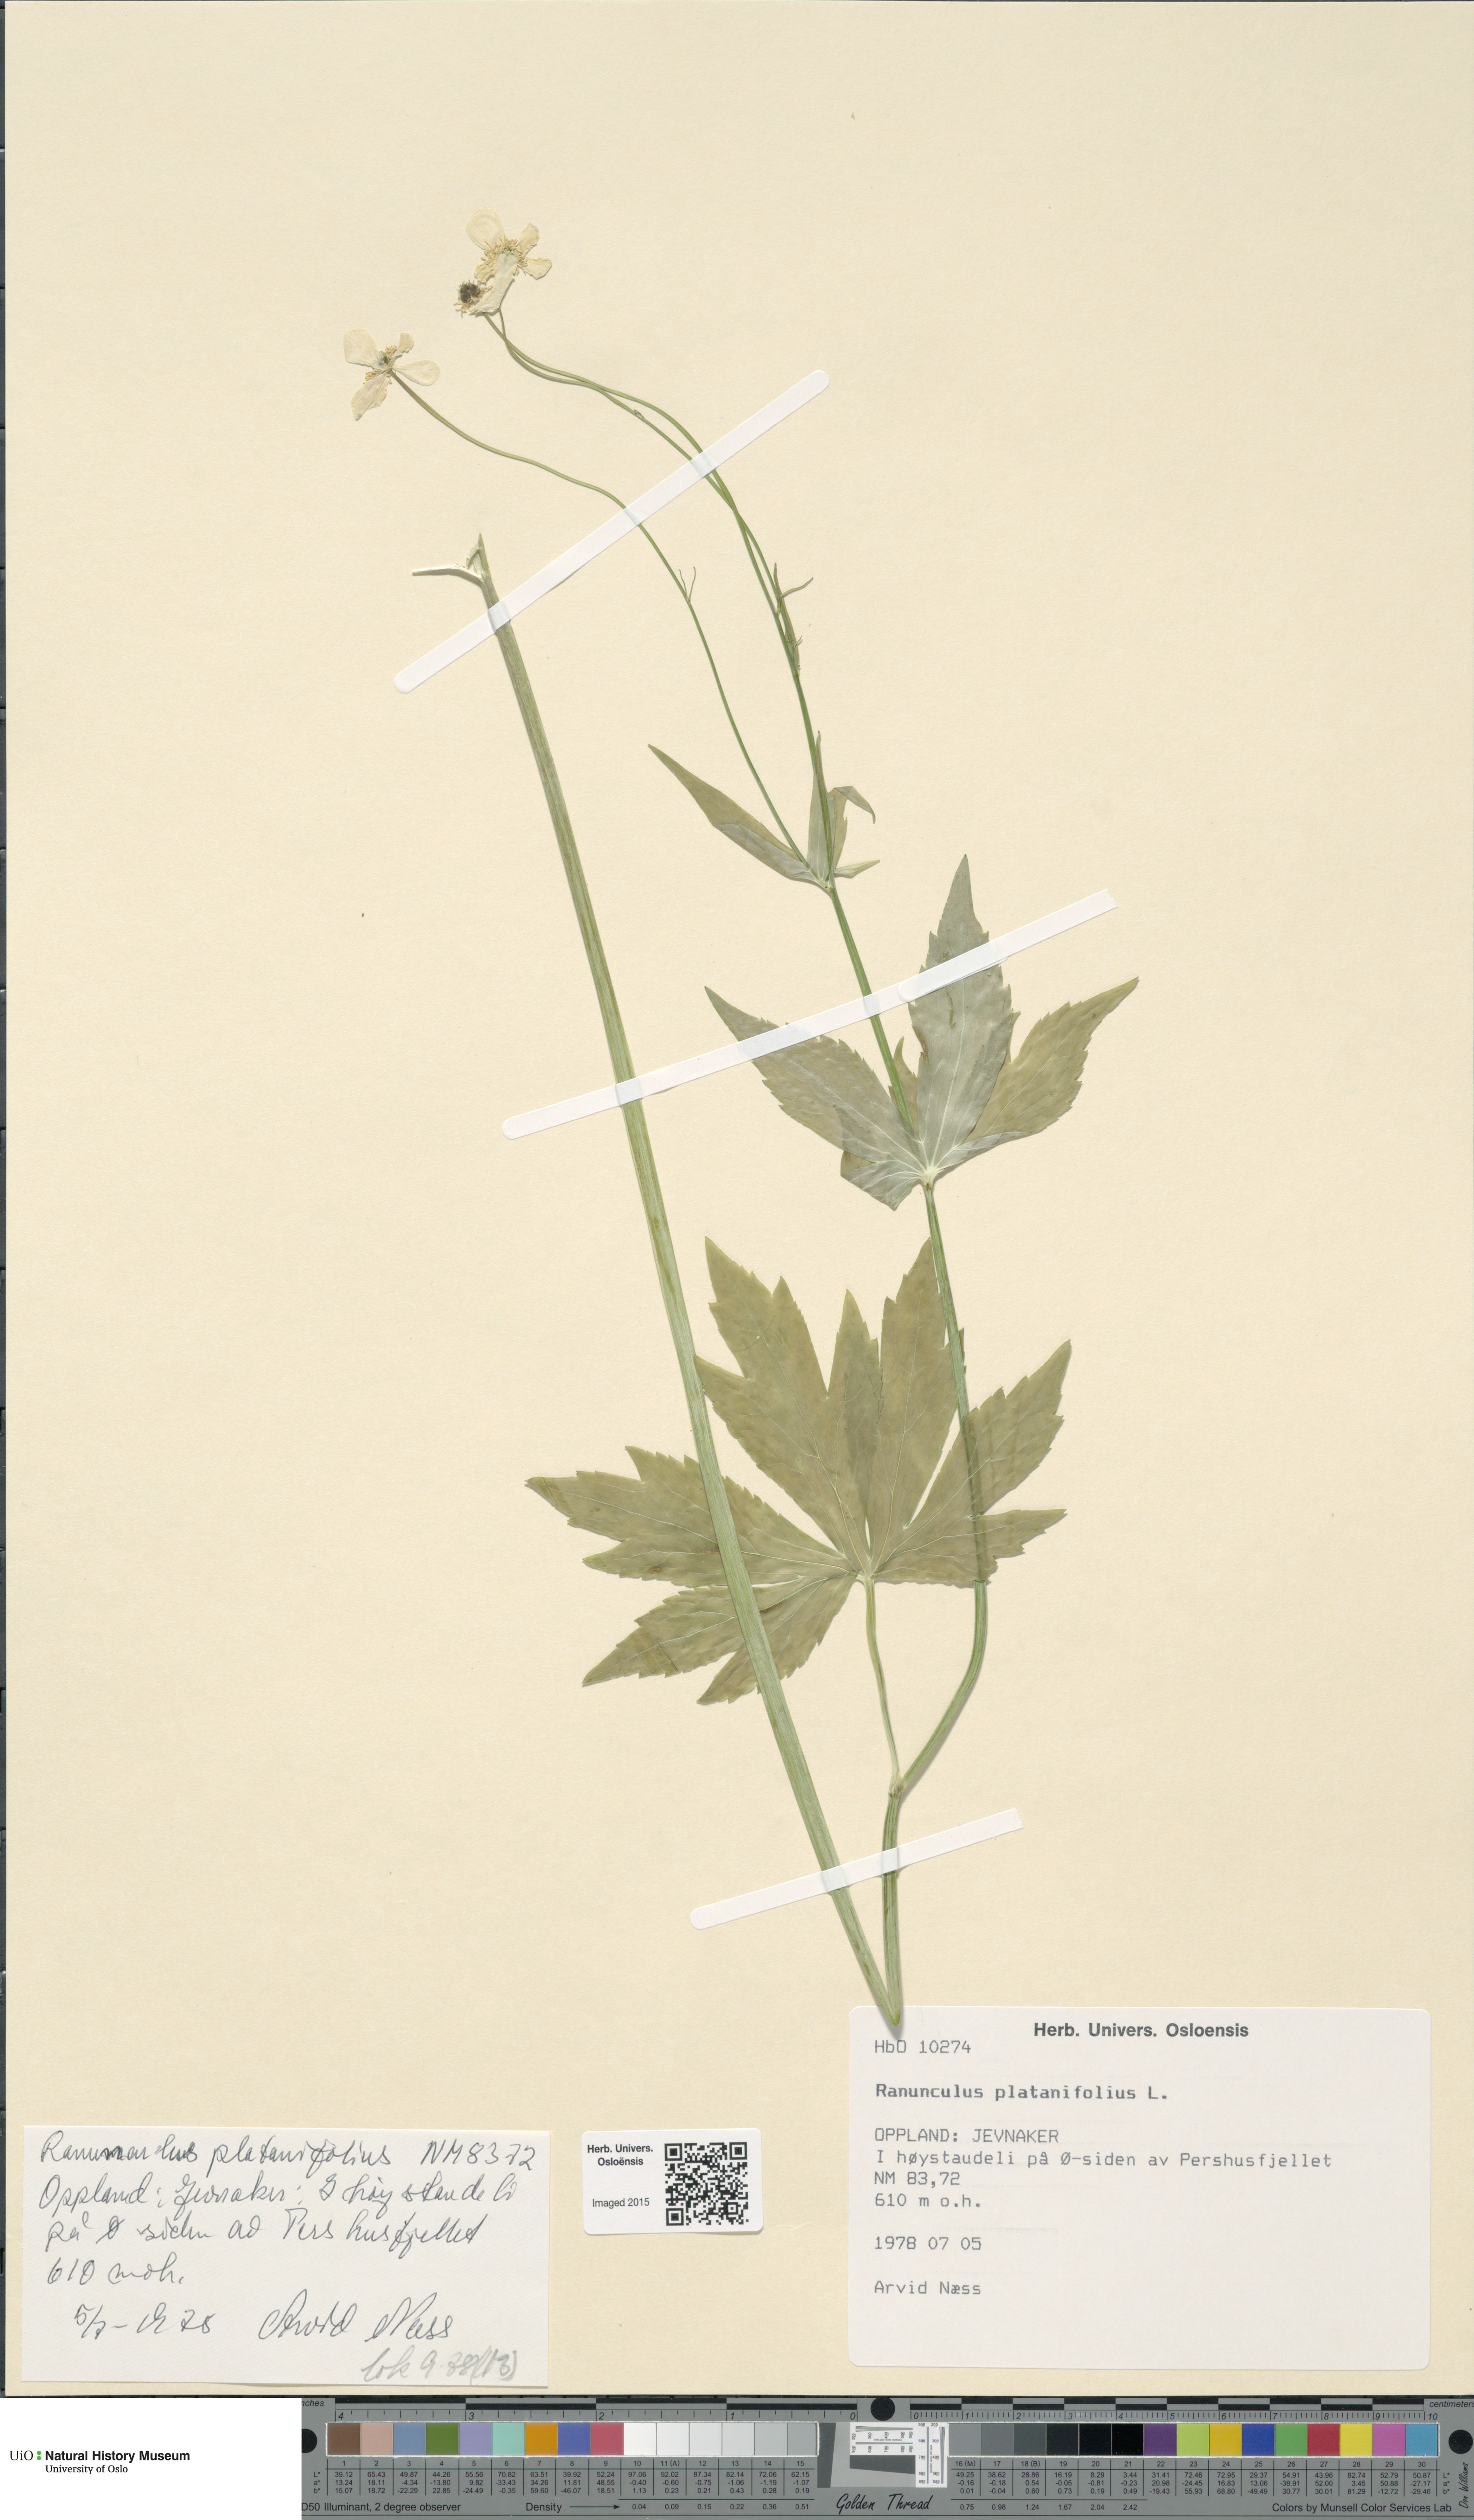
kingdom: Plantae
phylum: Tracheophyta
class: Magnoliopsida
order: Ranunculales
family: Ranunculaceae
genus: Ranunculus
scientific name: Ranunculus platanifolius
